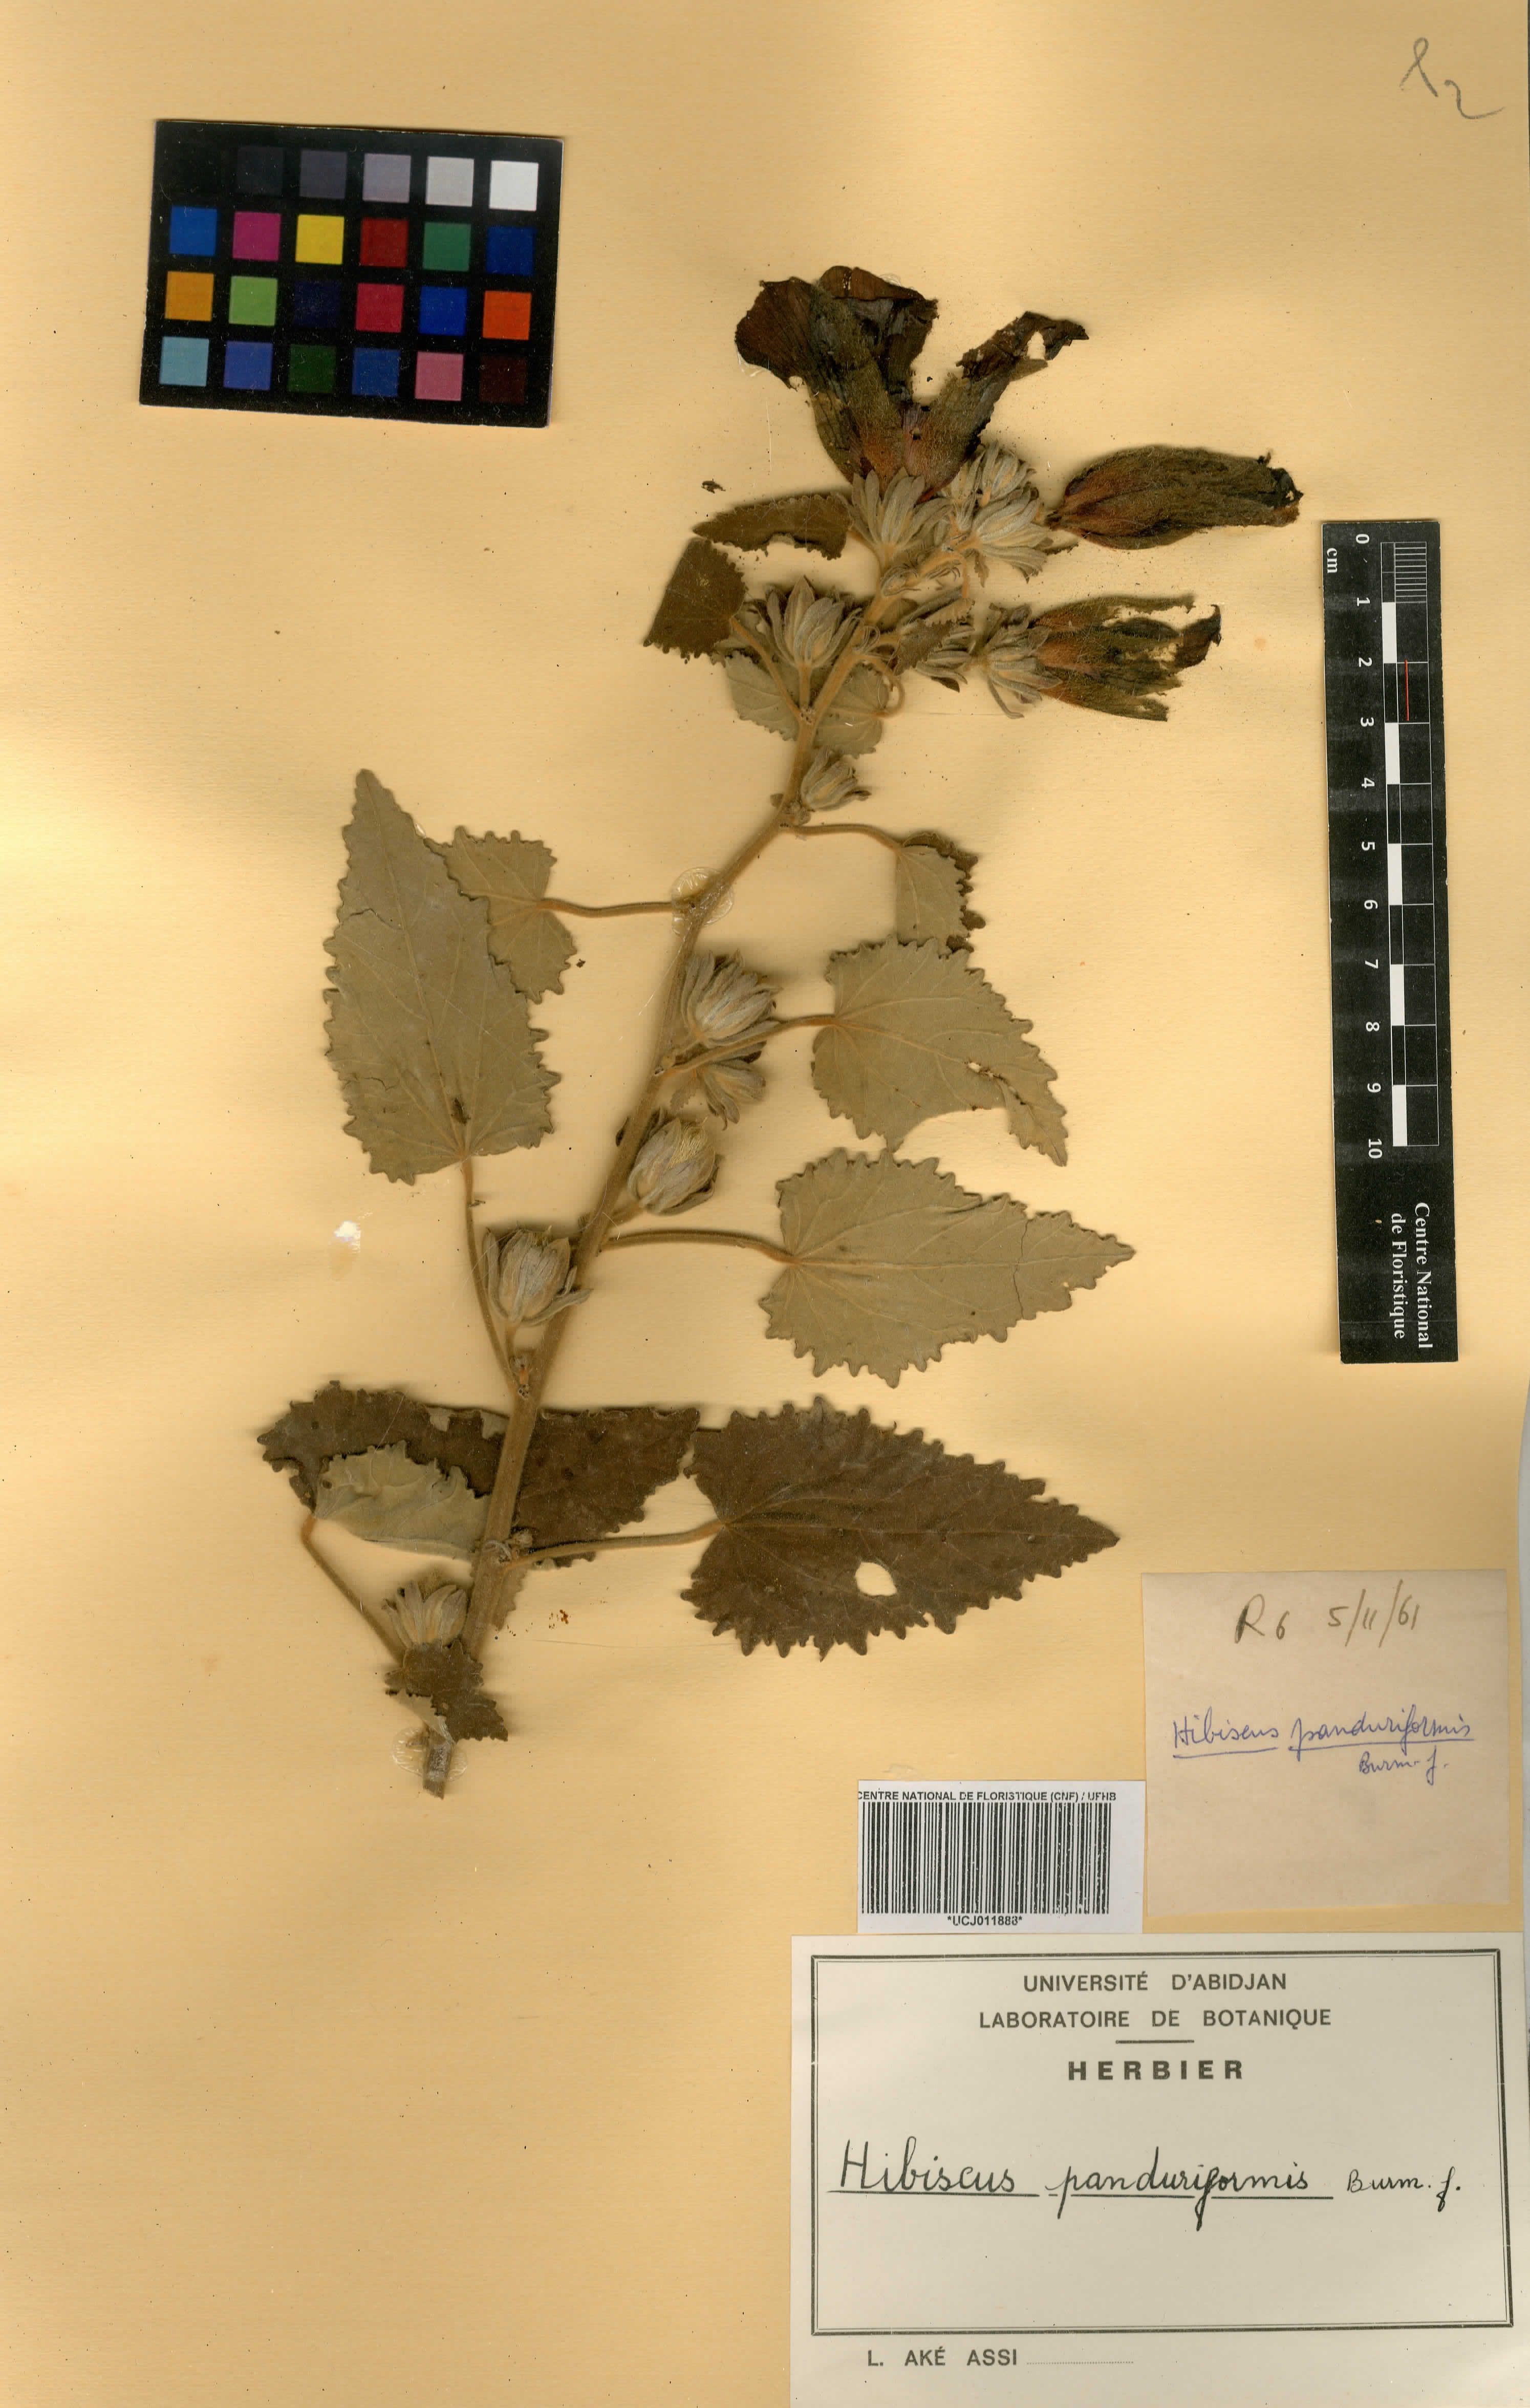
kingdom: Plantae
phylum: Tracheophyta
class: Magnoliopsida
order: Malvales
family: Malvaceae
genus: Hibiscus
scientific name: Hibiscus panduriformis
